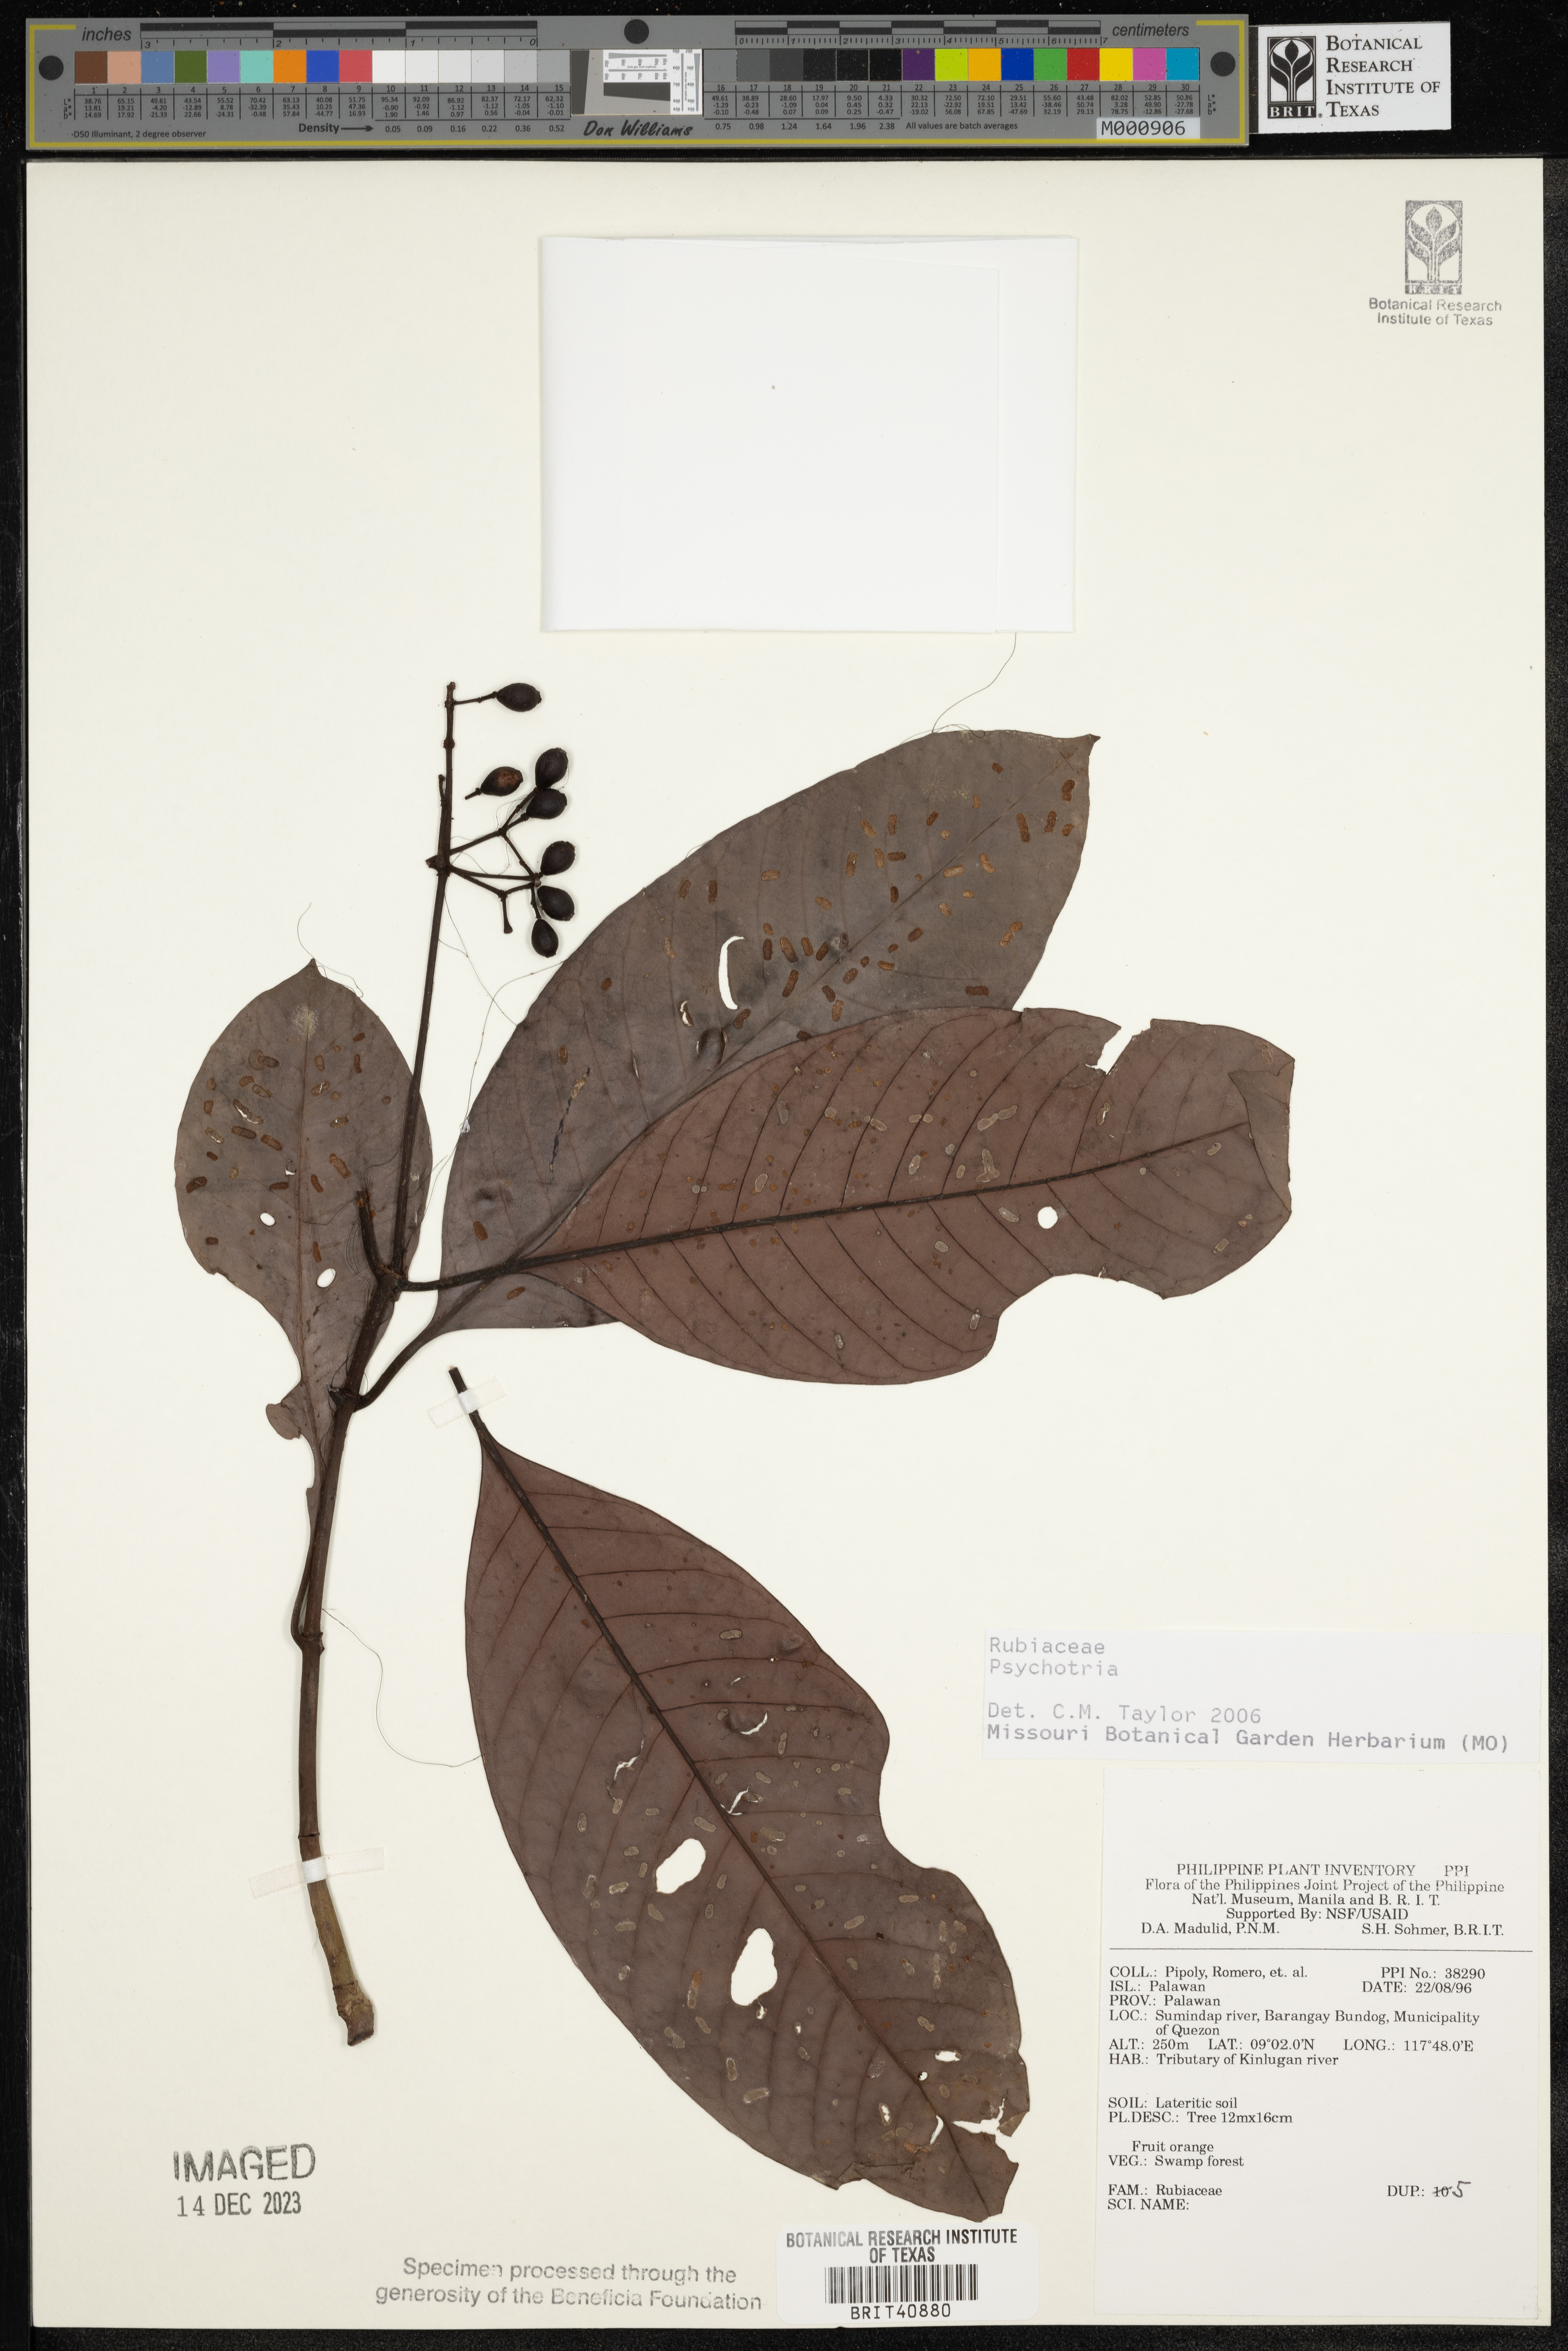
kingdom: Plantae
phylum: Tracheophyta
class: Magnoliopsida
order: Gentianales
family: Rubiaceae
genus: Psychotria
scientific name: Psychotria
